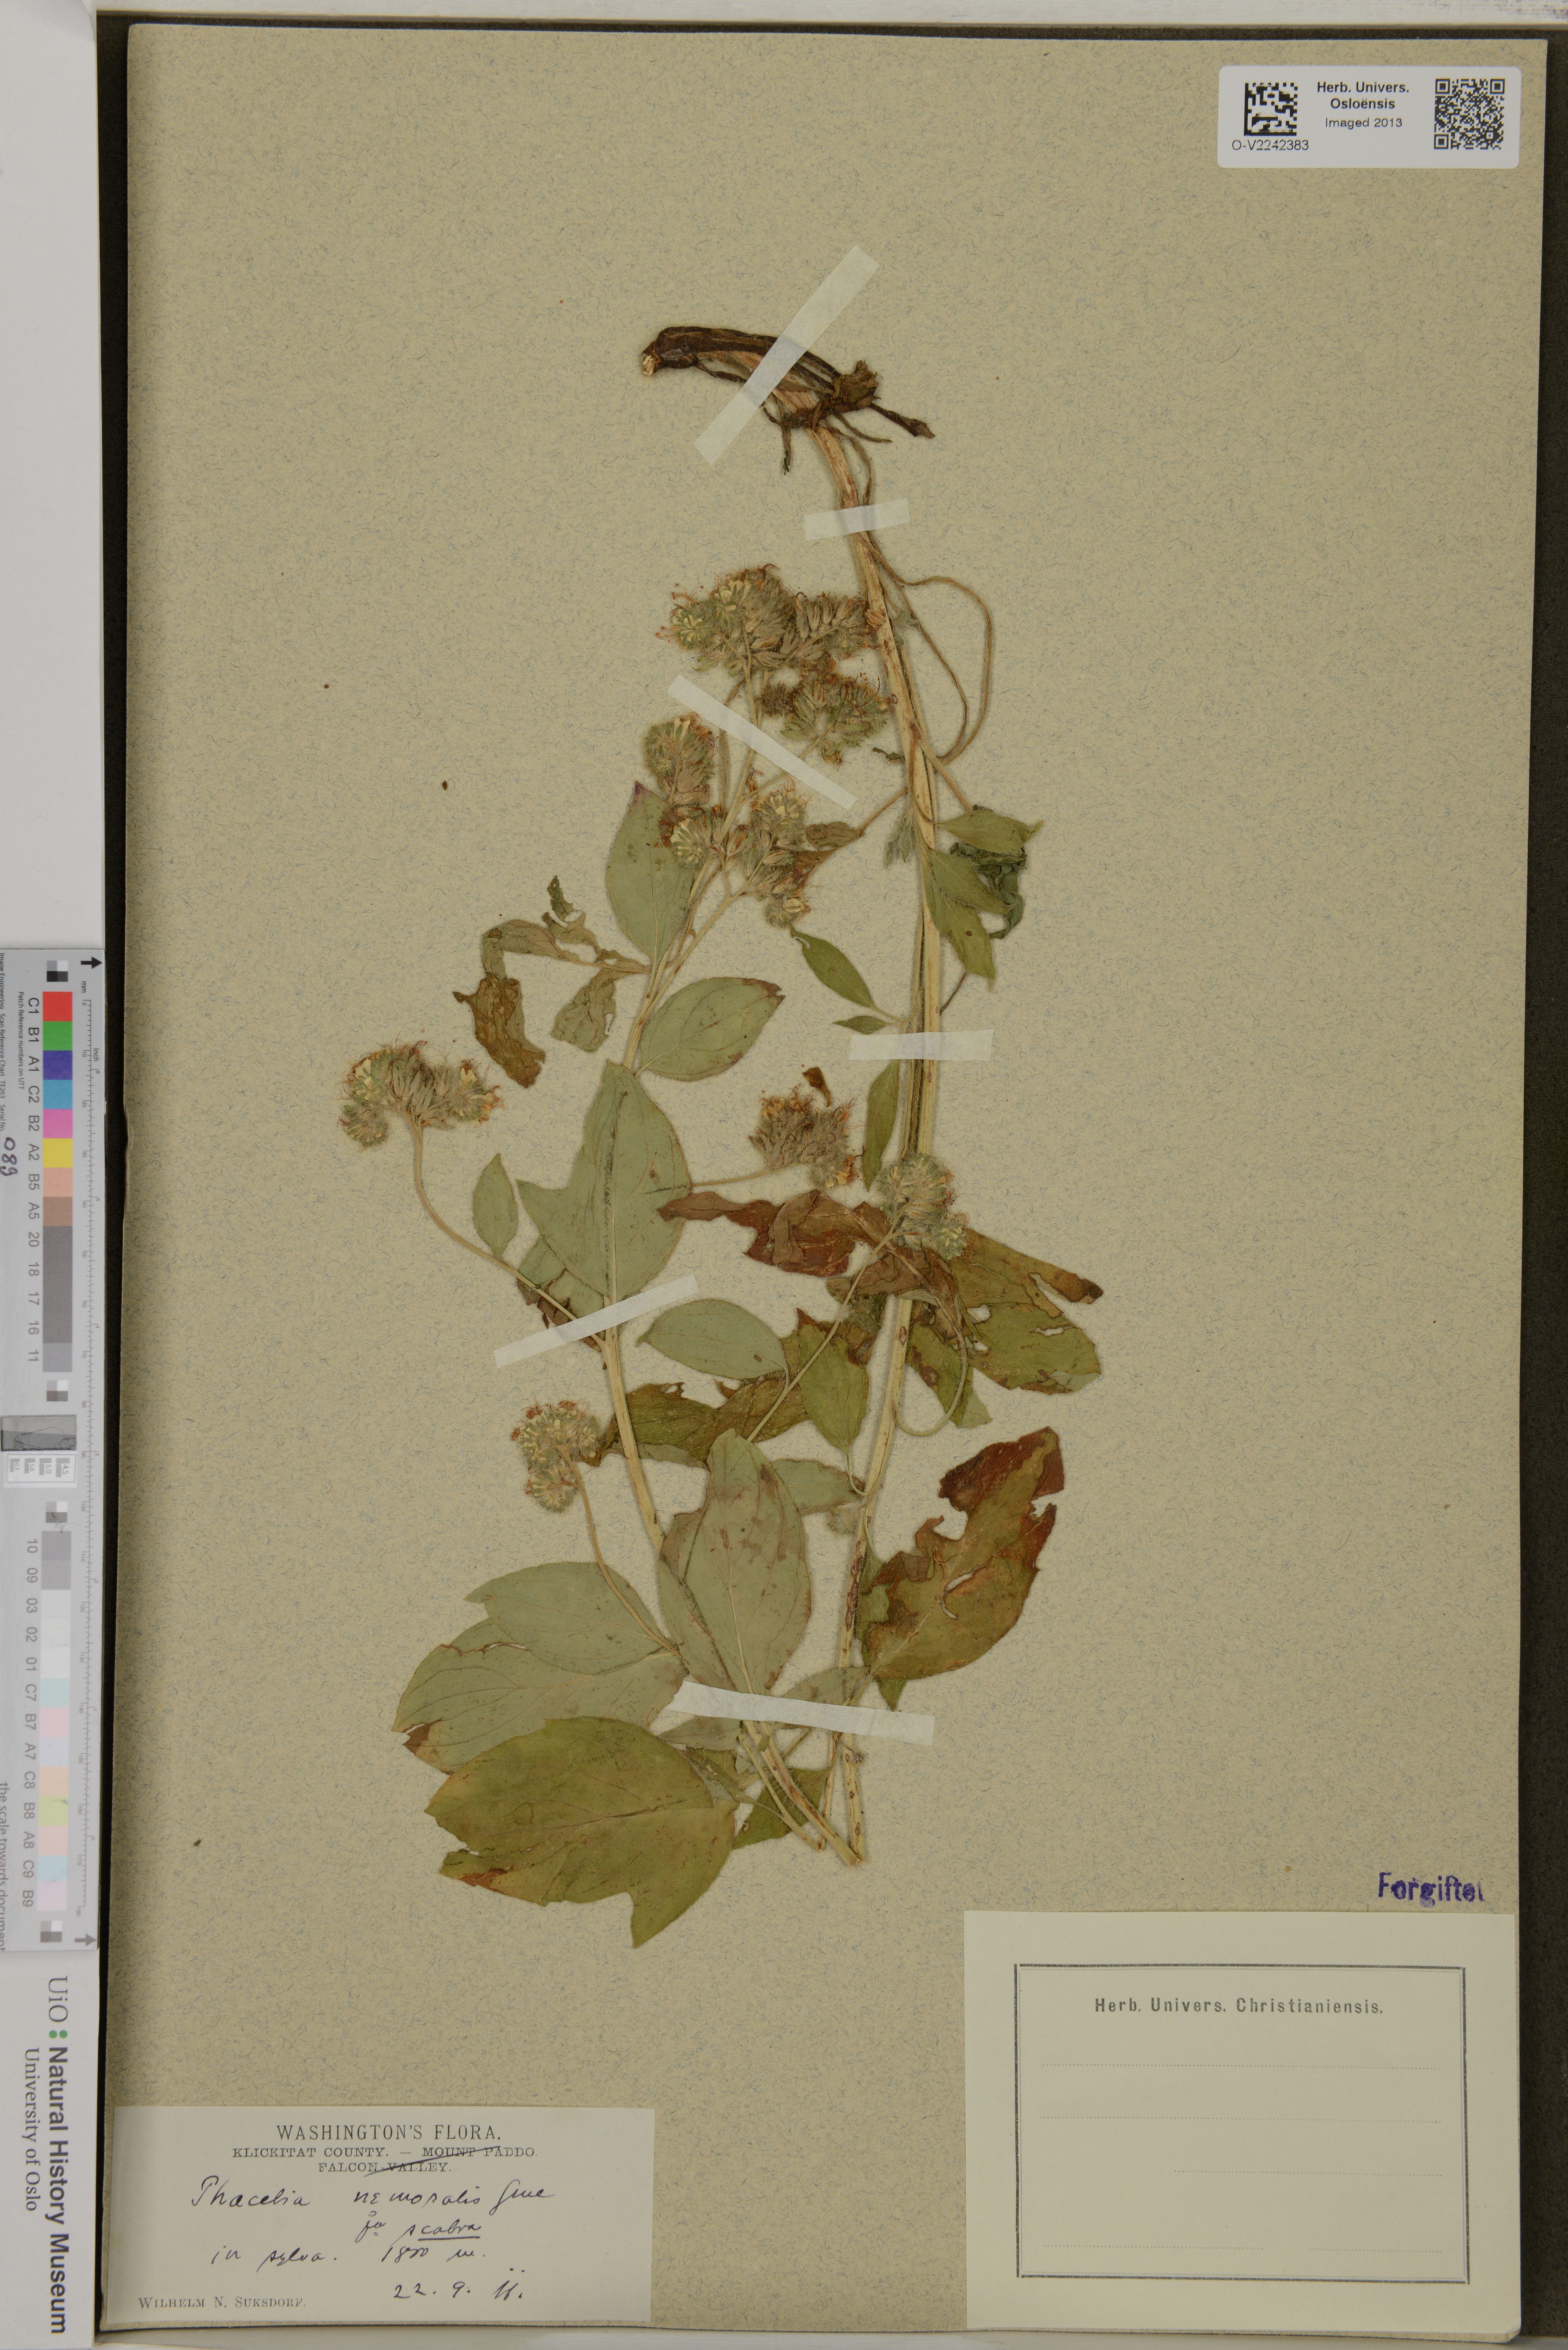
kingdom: Plantae
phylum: Tracheophyta
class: Magnoliopsida
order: Boraginales
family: Hydrophyllaceae
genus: Phacelia
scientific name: Phacelia nemoralis
